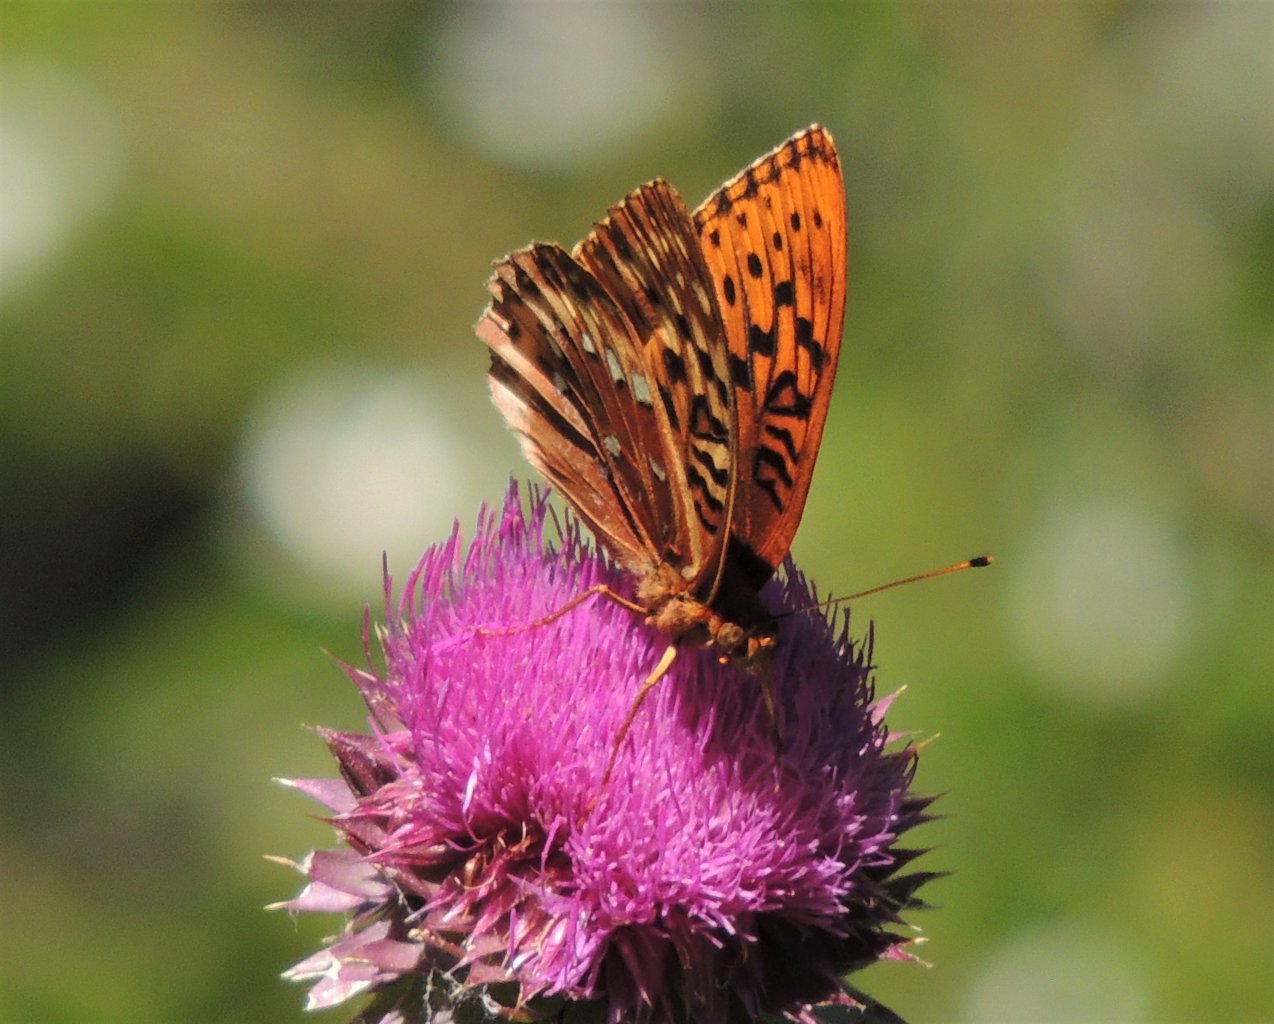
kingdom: Animalia
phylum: Arthropoda
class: Insecta
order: Lepidoptera
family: Nymphalidae
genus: Speyeria
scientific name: Speyeria cybele
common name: Great Spangled Fritillary
